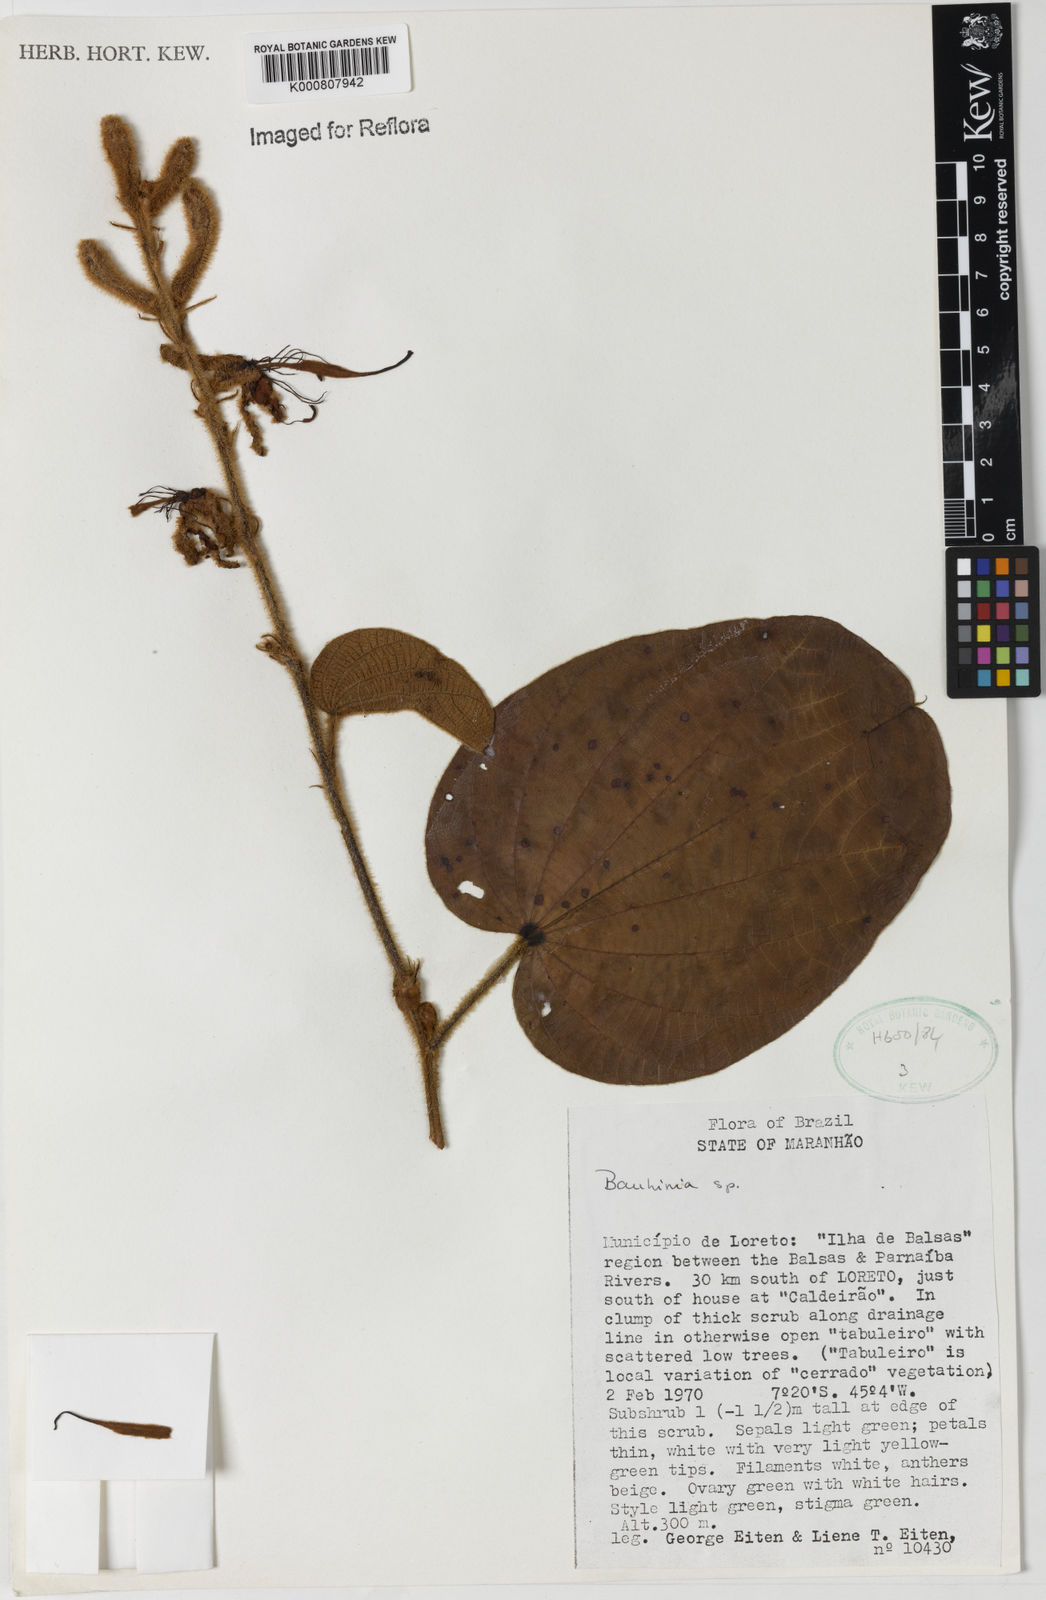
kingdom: Plantae
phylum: Tracheophyta
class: Magnoliopsida
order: Fabales
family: Fabaceae
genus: Bauhinia
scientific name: Bauhinia
